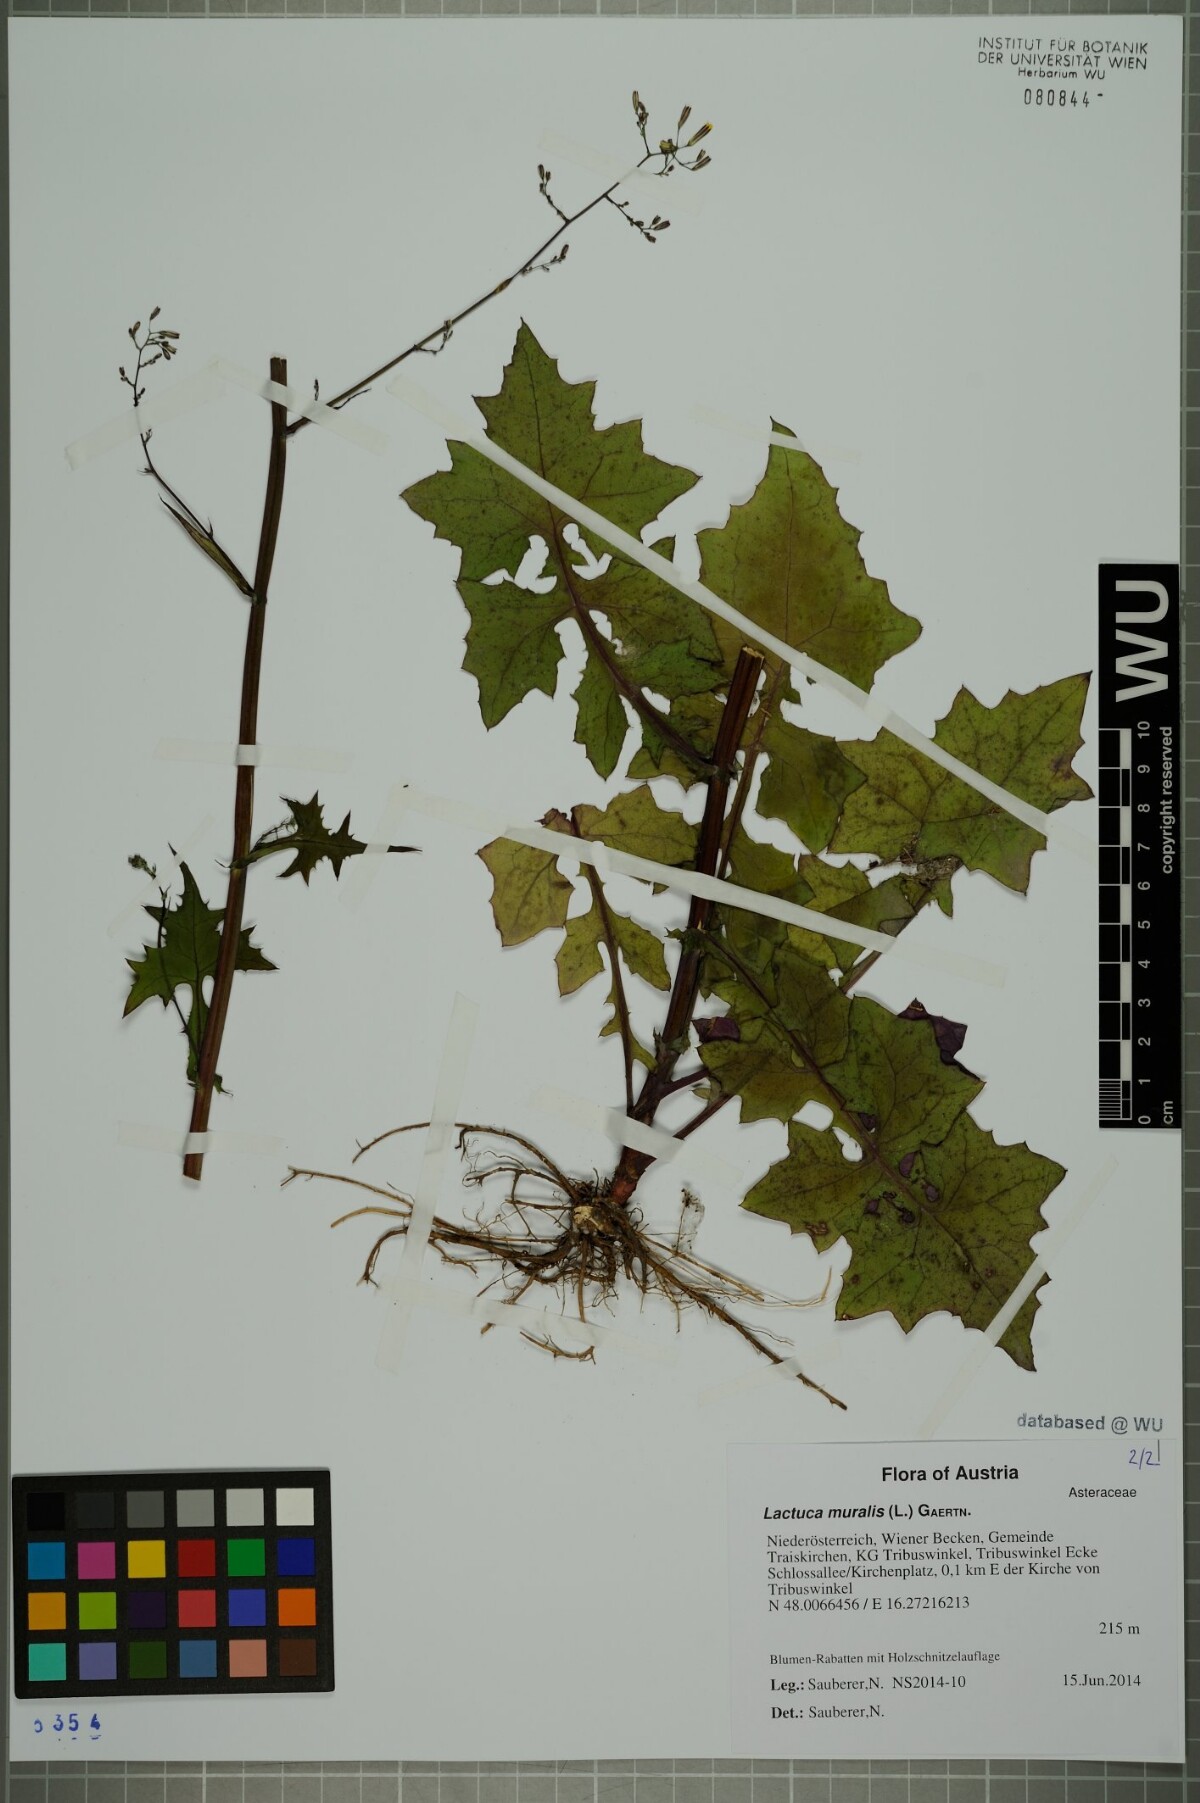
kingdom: Plantae
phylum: Tracheophyta
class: Magnoliopsida
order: Asterales
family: Asteraceae
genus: Mycelis
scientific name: Mycelis muralis
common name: Wall lettuce
